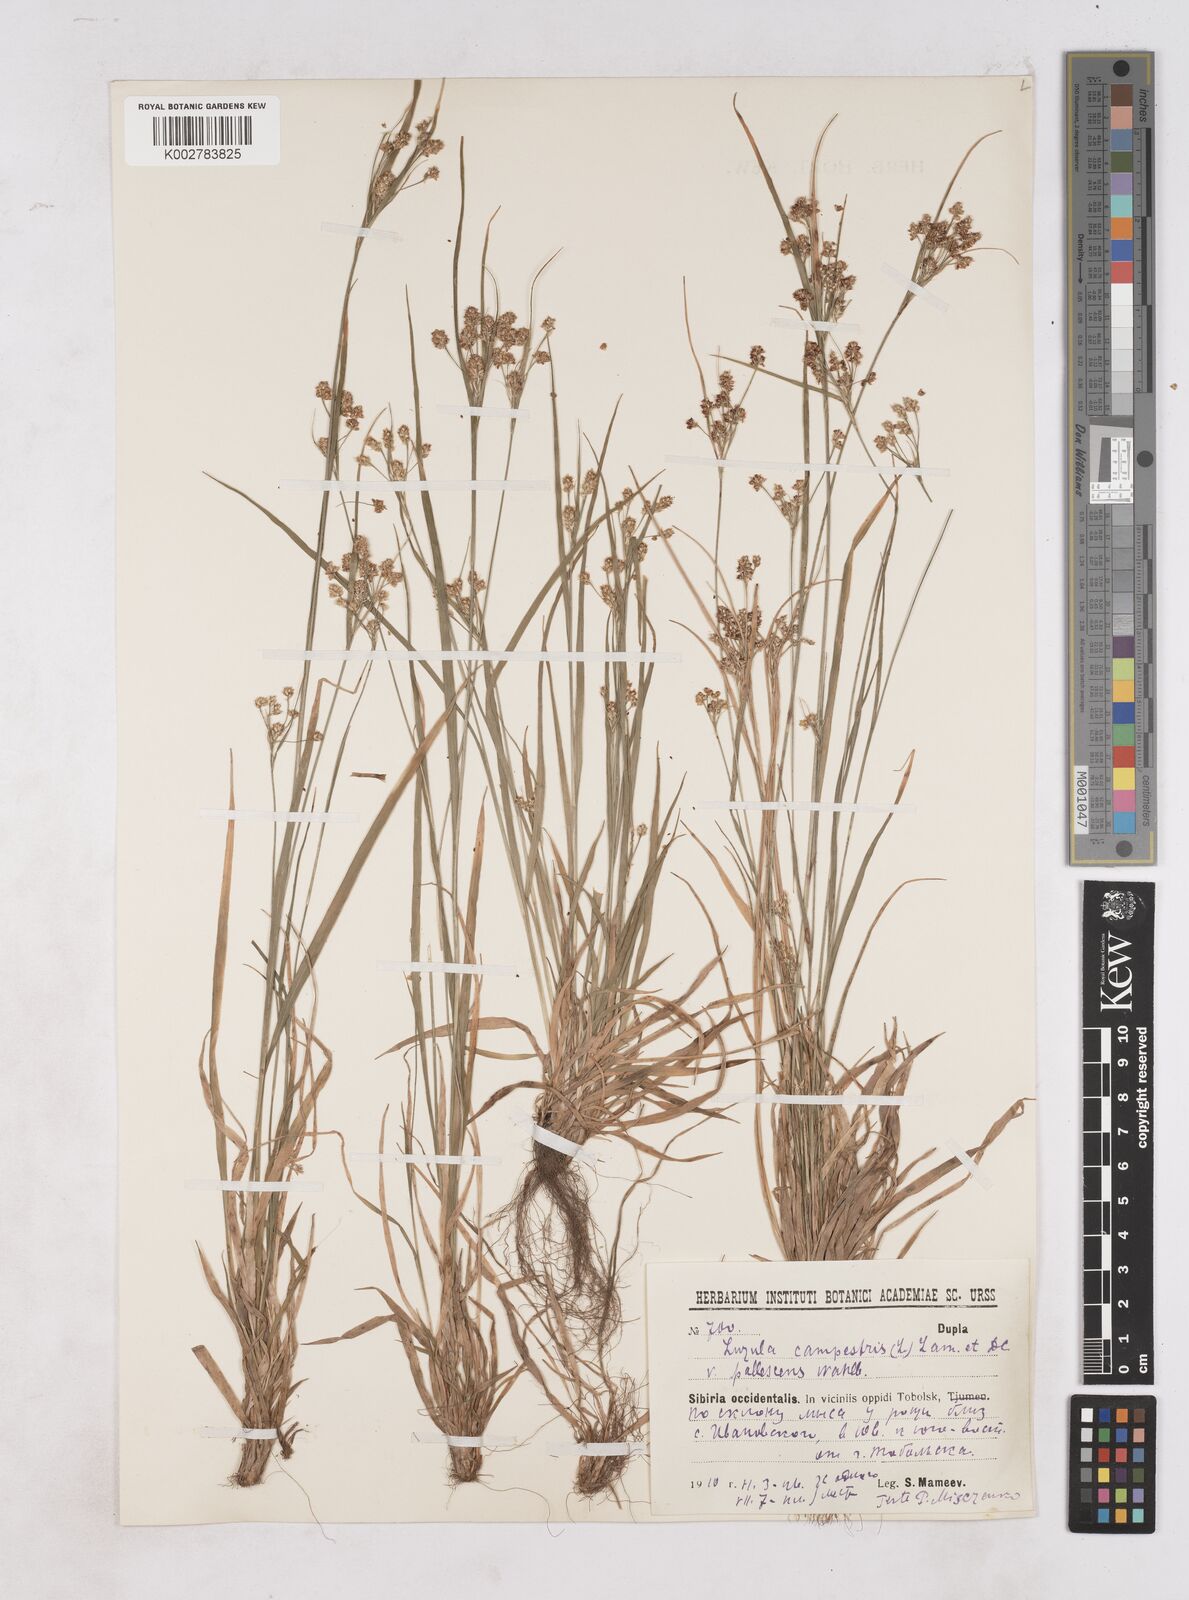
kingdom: Plantae
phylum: Tracheophyta
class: Liliopsida
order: Poales
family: Juncaceae
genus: Luzula
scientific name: Luzula pallescens
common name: Fen wood-rush
